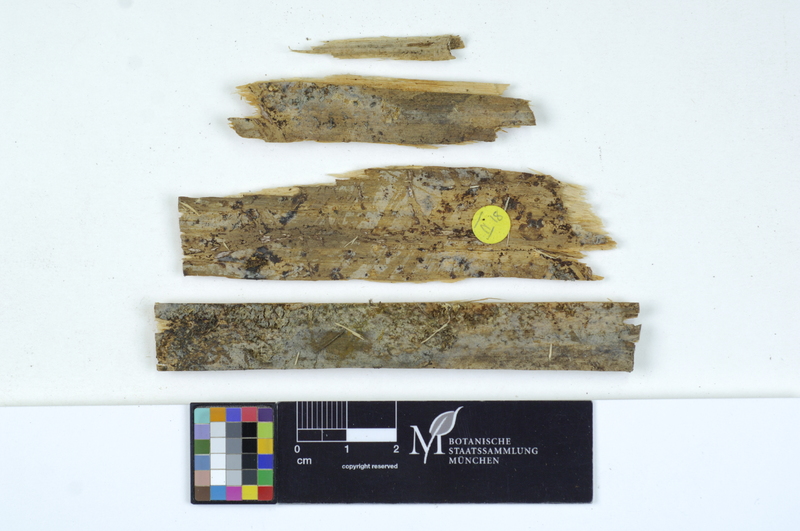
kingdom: Fungi
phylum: Basidiomycota
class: Agaricomycetes
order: Cantharellales
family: Tulasnellaceae
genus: Tulasnella
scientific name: Tulasnella tomaculum
